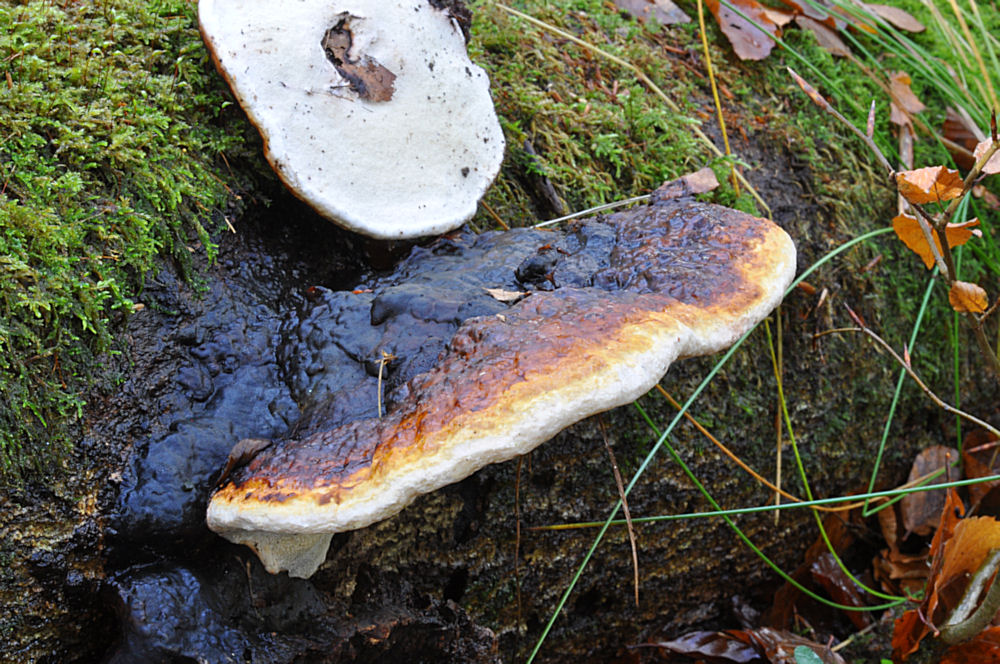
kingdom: Fungi
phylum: Basidiomycota
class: Agaricomycetes
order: Polyporales
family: Fomitopsidaceae
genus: Fomitopsis
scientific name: Fomitopsis pinicola
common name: randbæltet hovporesvamp
